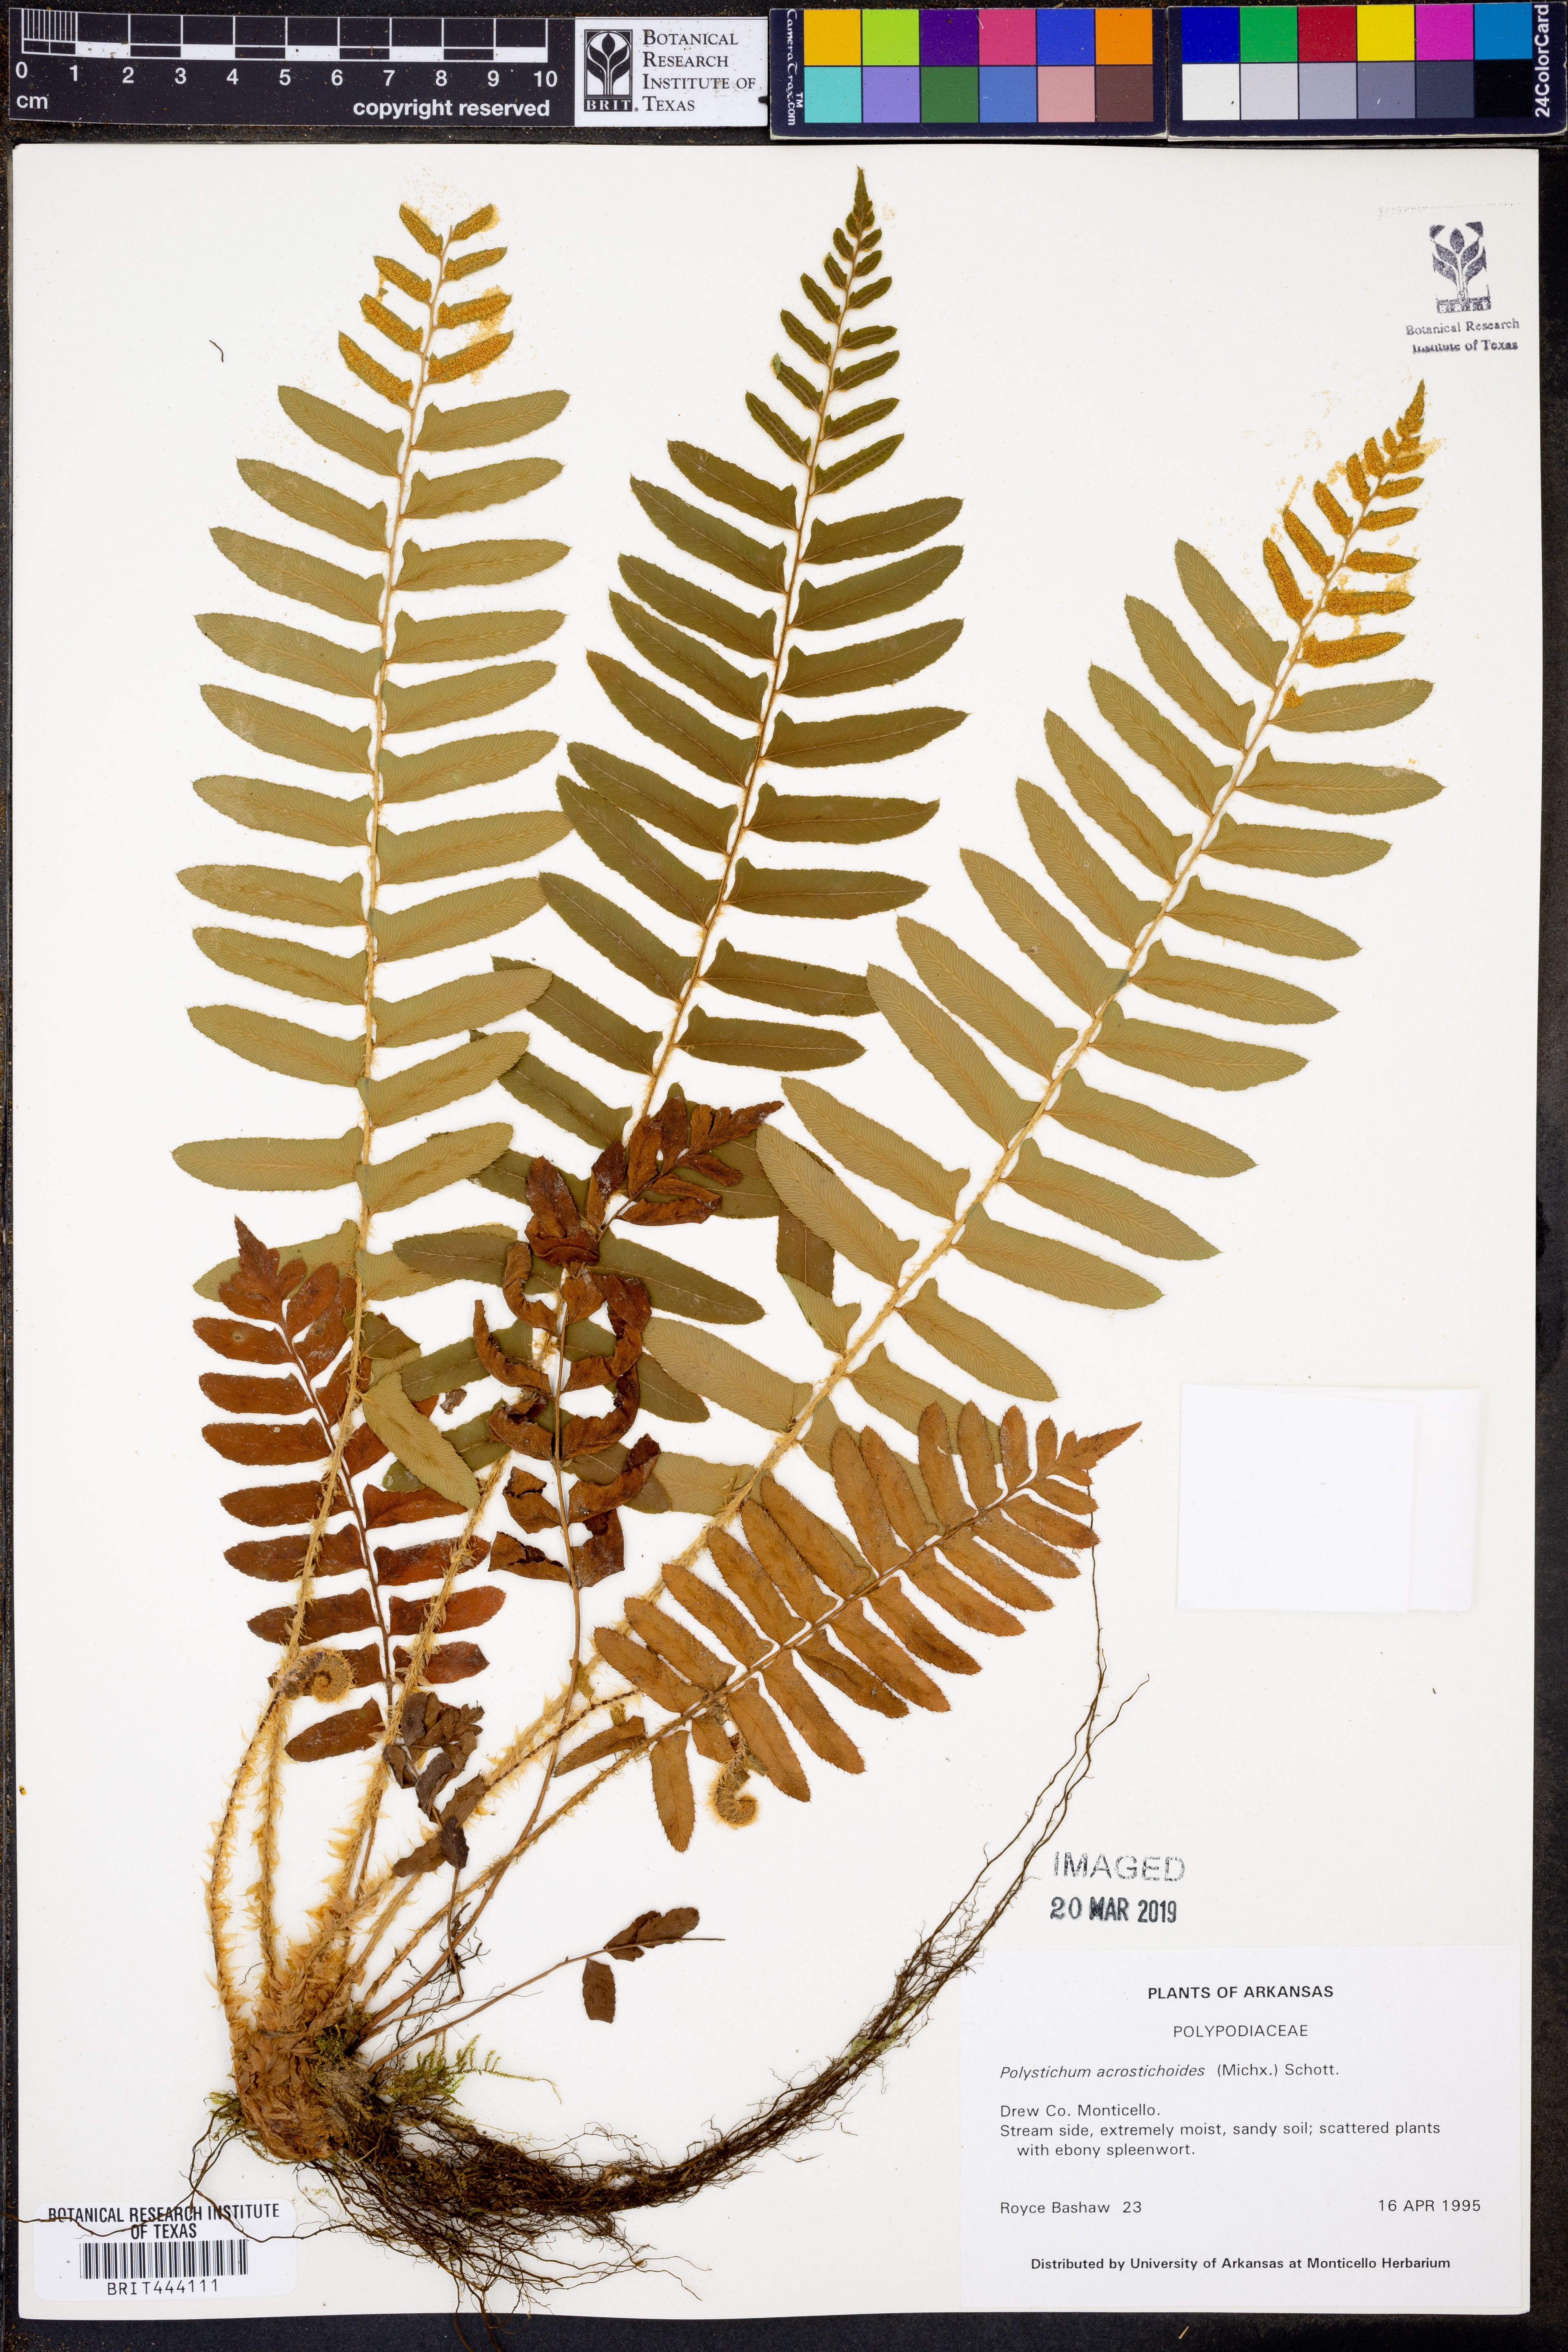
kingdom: Plantae
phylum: Tracheophyta
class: Polypodiopsida
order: Polypodiales
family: Dryopteridaceae
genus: Polystichum
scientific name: Polystichum acrostichoides
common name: Christmas fern
